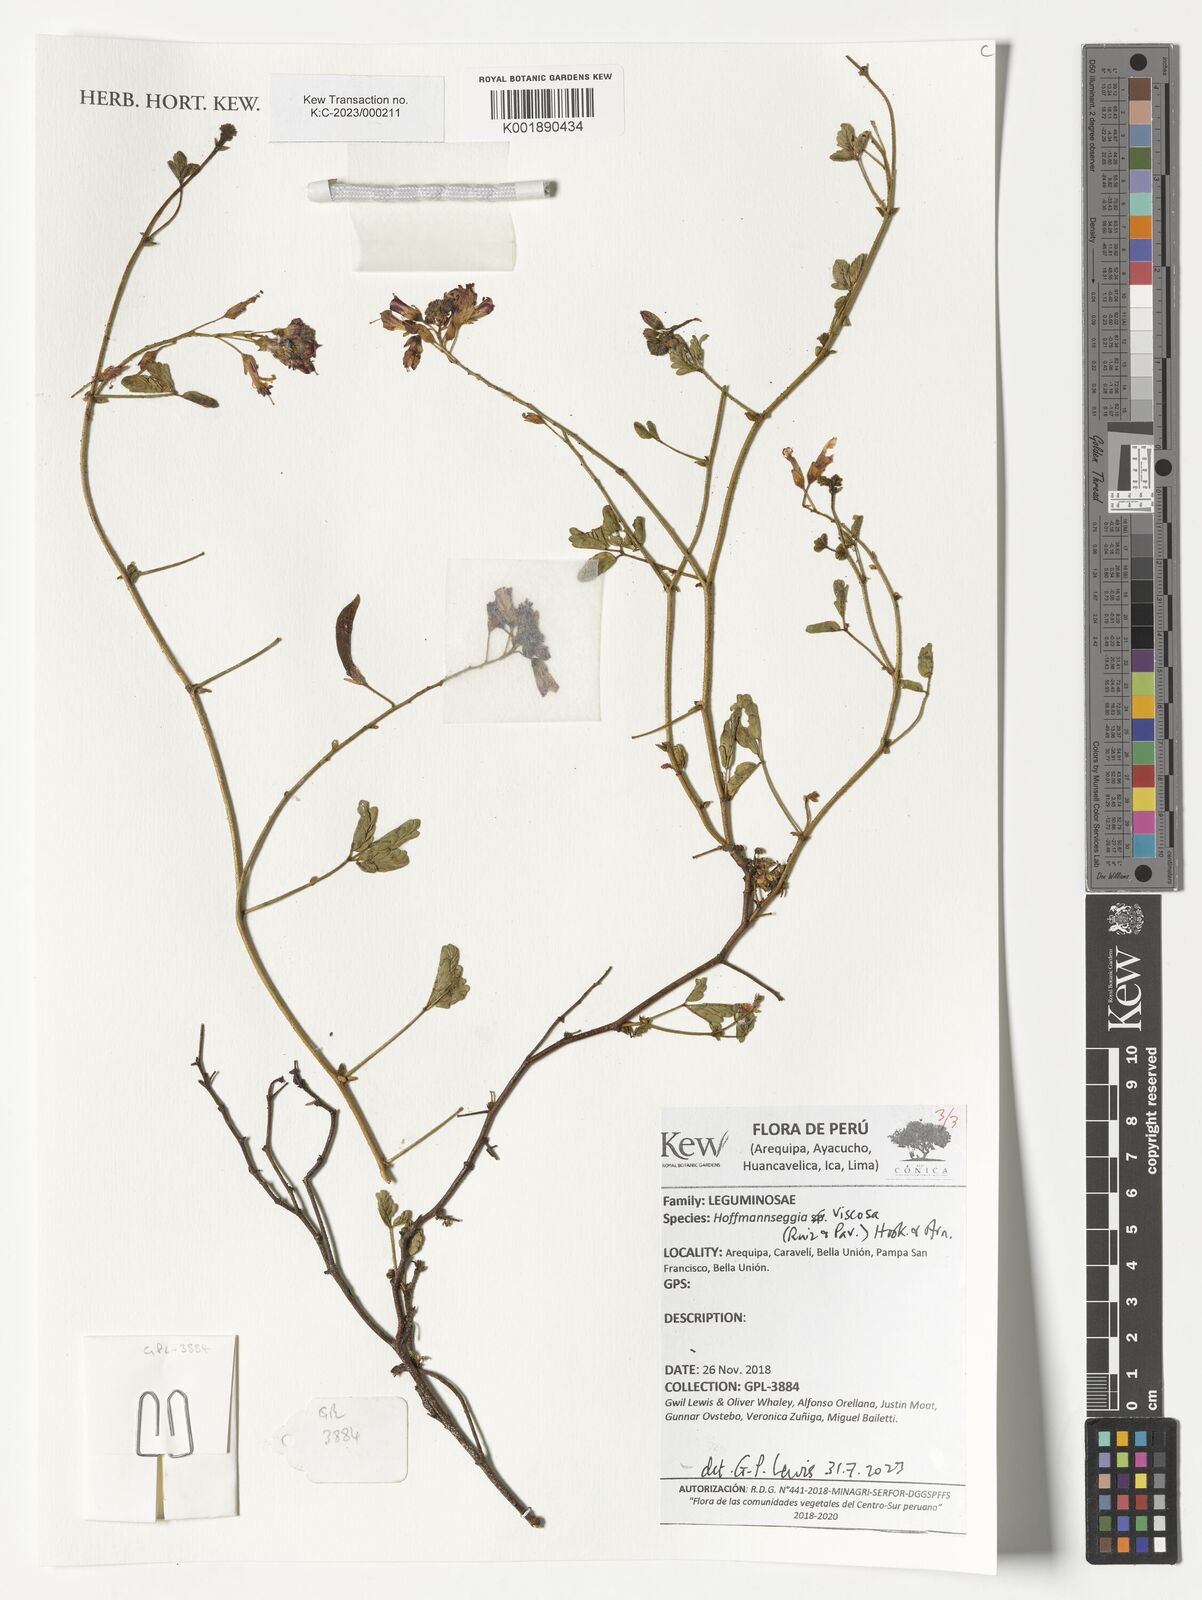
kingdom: Plantae
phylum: Tracheophyta
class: Magnoliopsida
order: Fabales
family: Fabaceae
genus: Hoffmannseggia
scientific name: Hoffmannseggia viscosa
